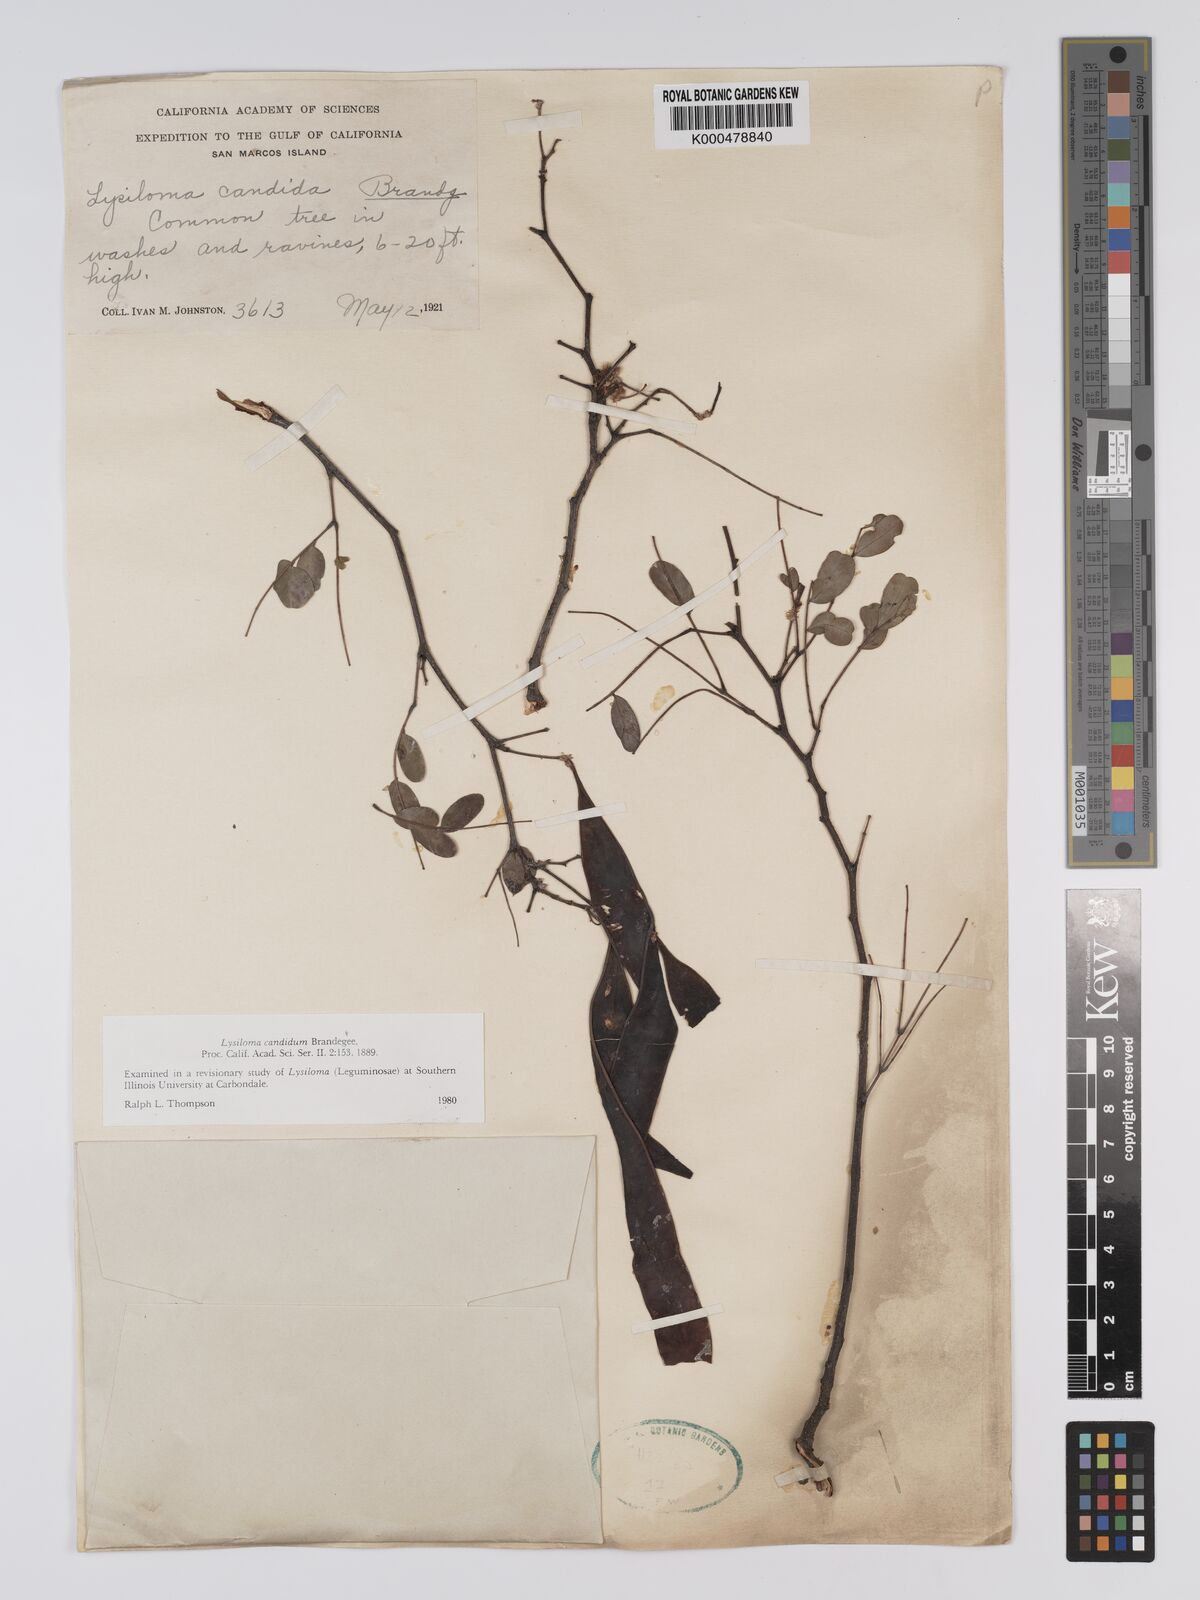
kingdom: Plantae
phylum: Tracheophyta
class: Magnoliopsida
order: Fabales
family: Fabaceae
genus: Lysiloma
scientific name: Lysiloma candidum
